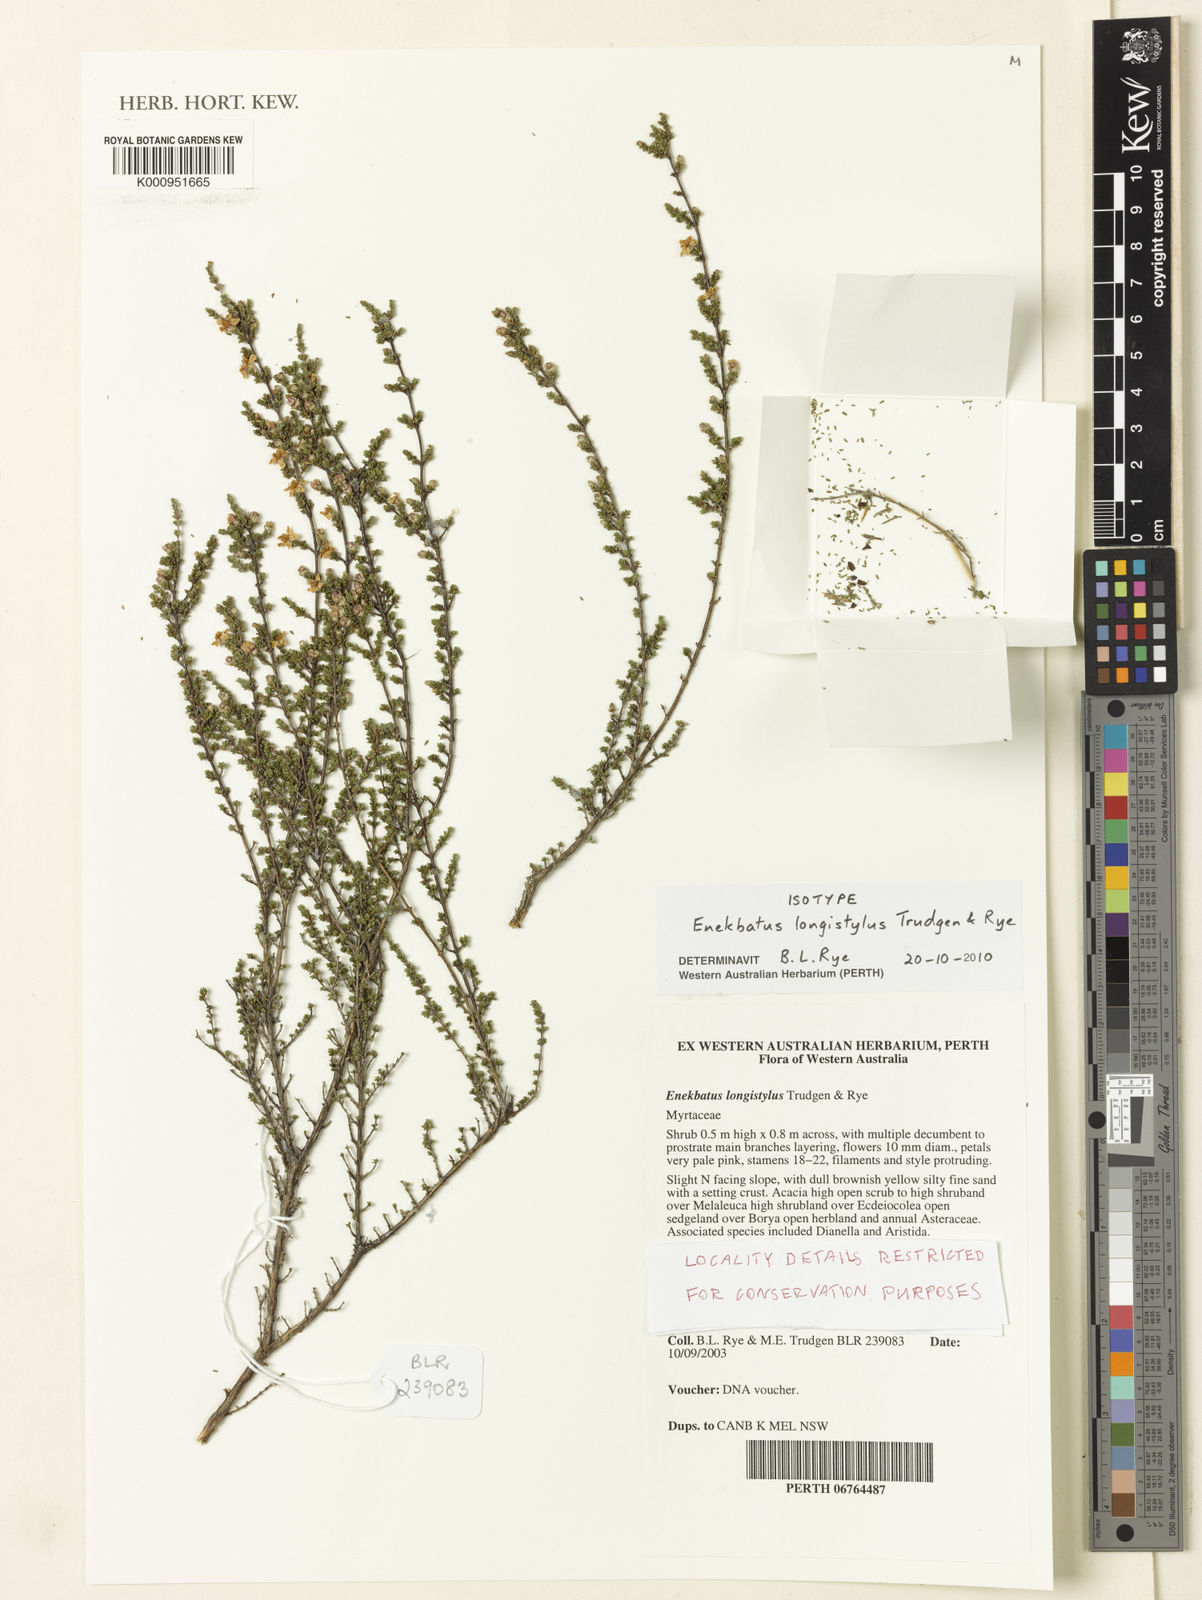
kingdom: Plantae
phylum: Tracheophyta
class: Magnoliopsida
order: Myrtales
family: Myrtaceae
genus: Enekbatus
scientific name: Enekbatus longistylus
